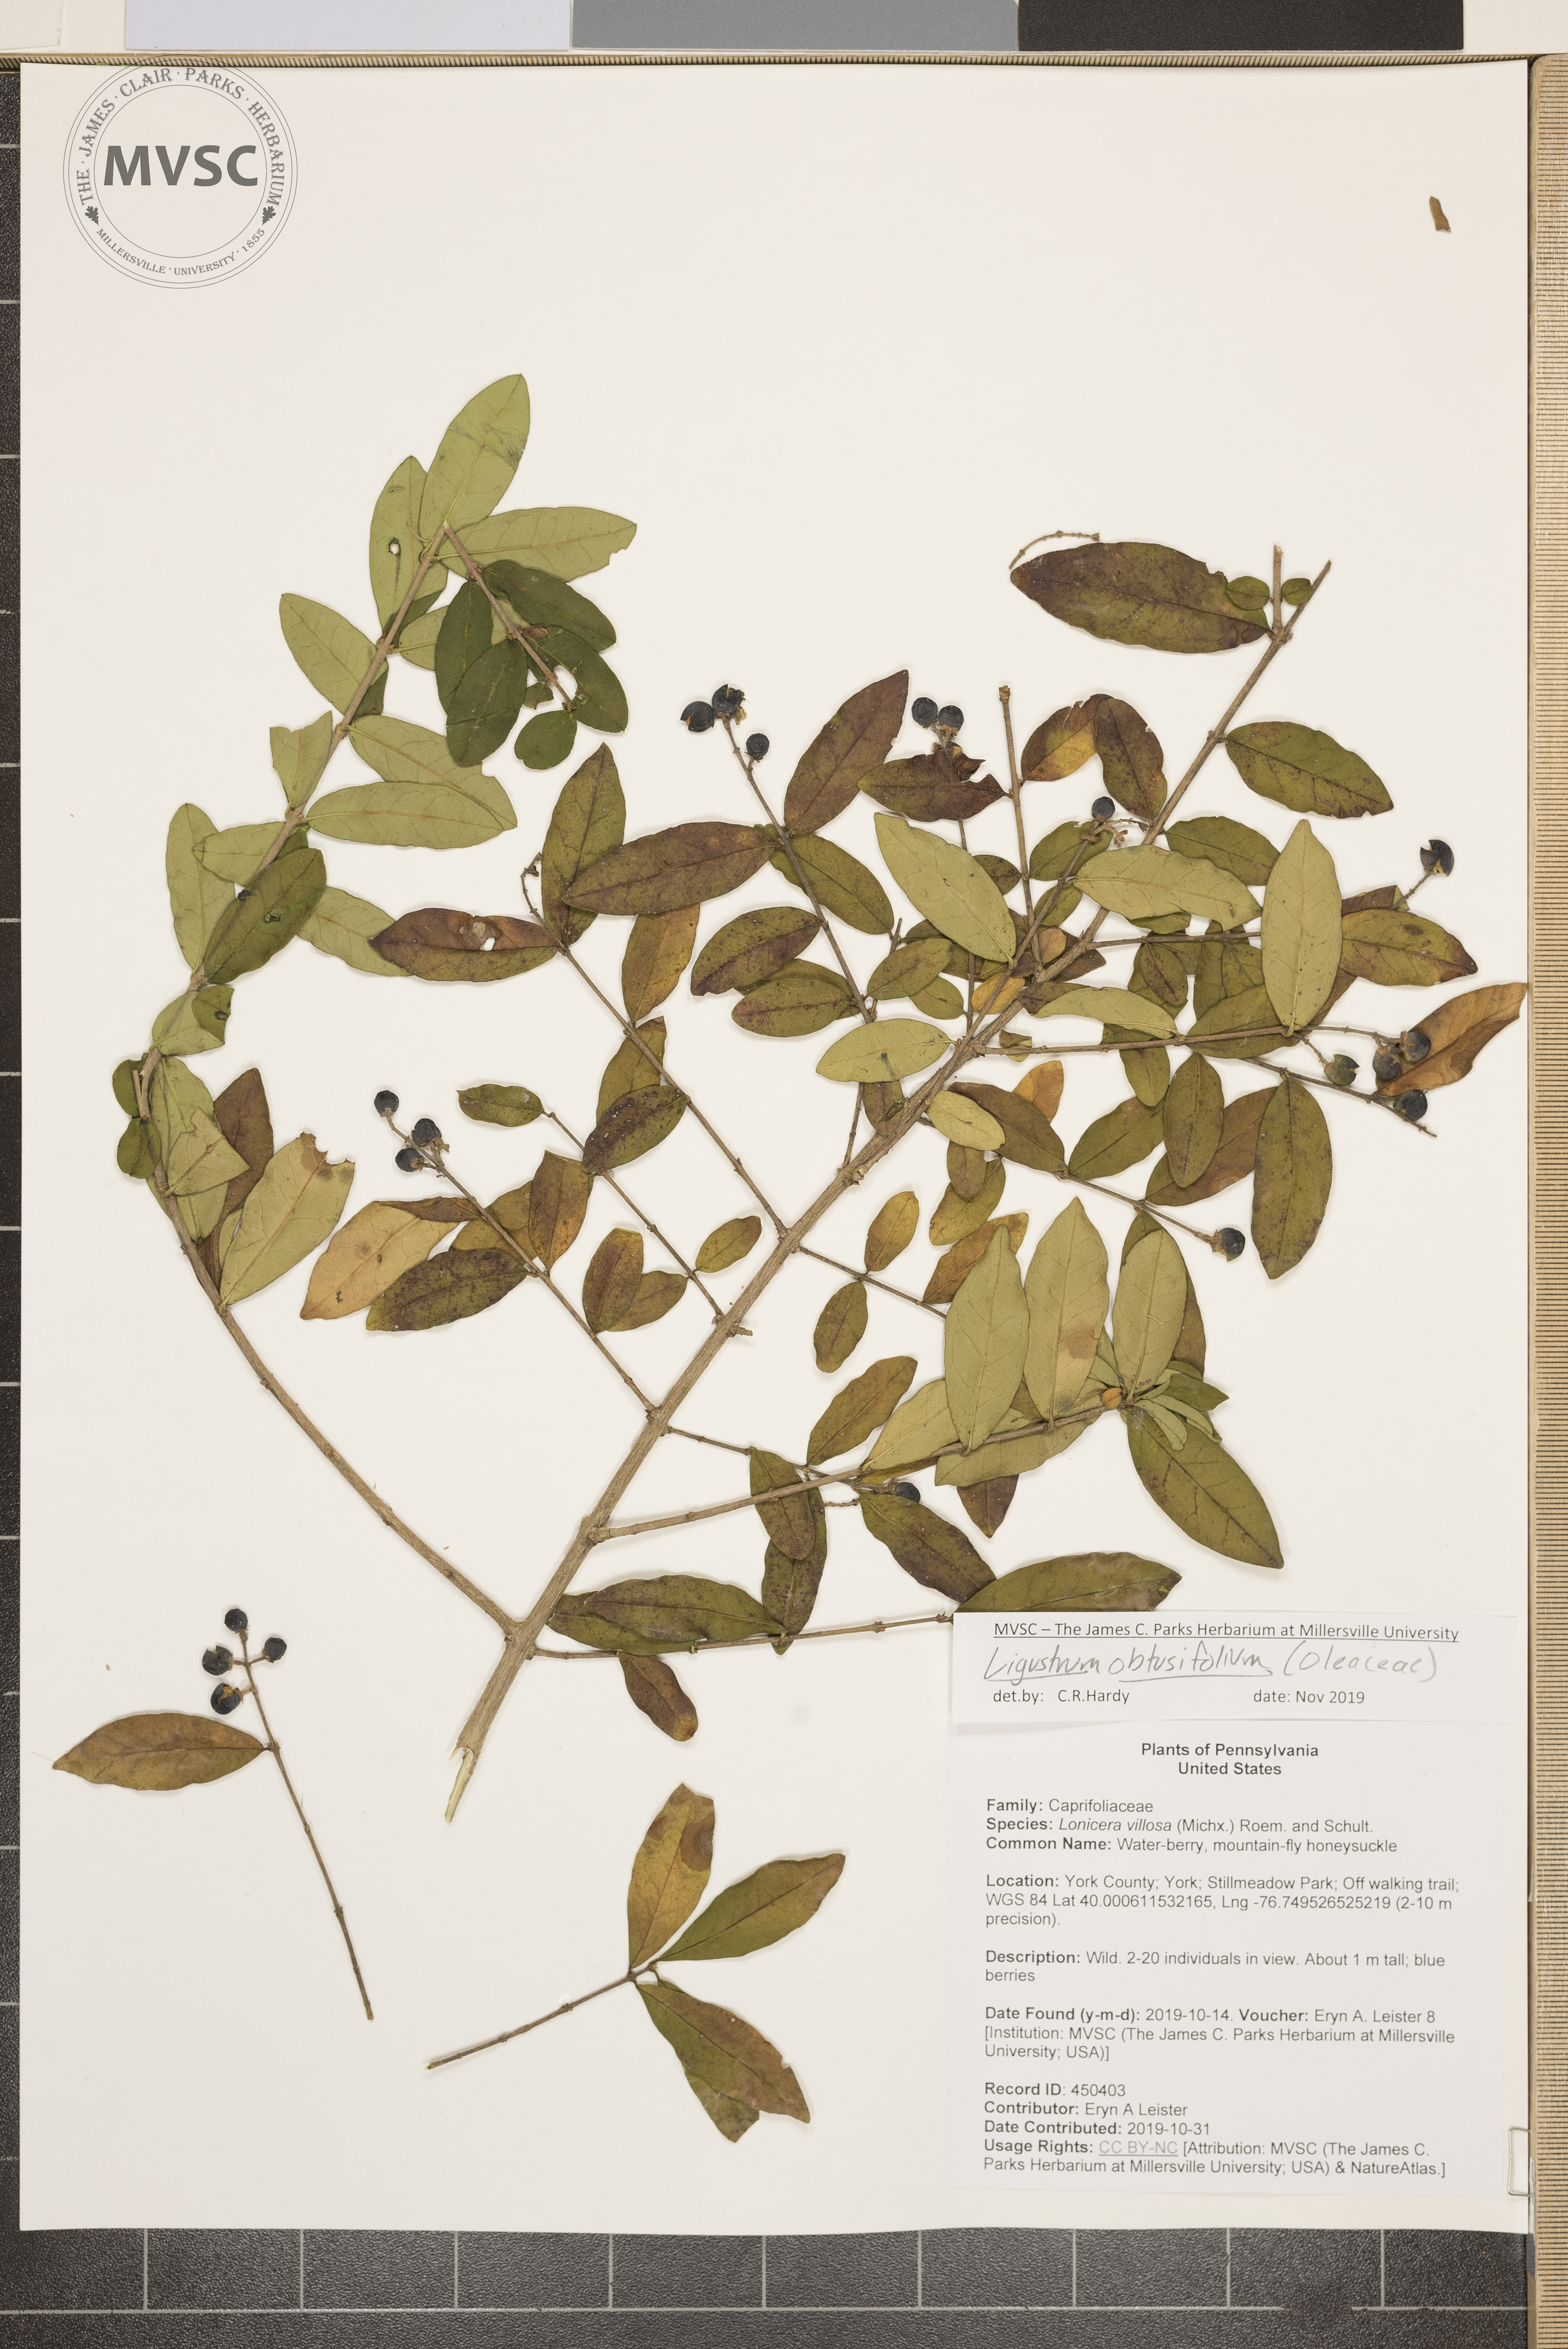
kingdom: Plantae
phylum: Tracheophyta
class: Magnoliopsida
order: Lamiales
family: Oleaceae
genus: Ligustrum
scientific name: Ligustrum obtusifolium
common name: Privet
